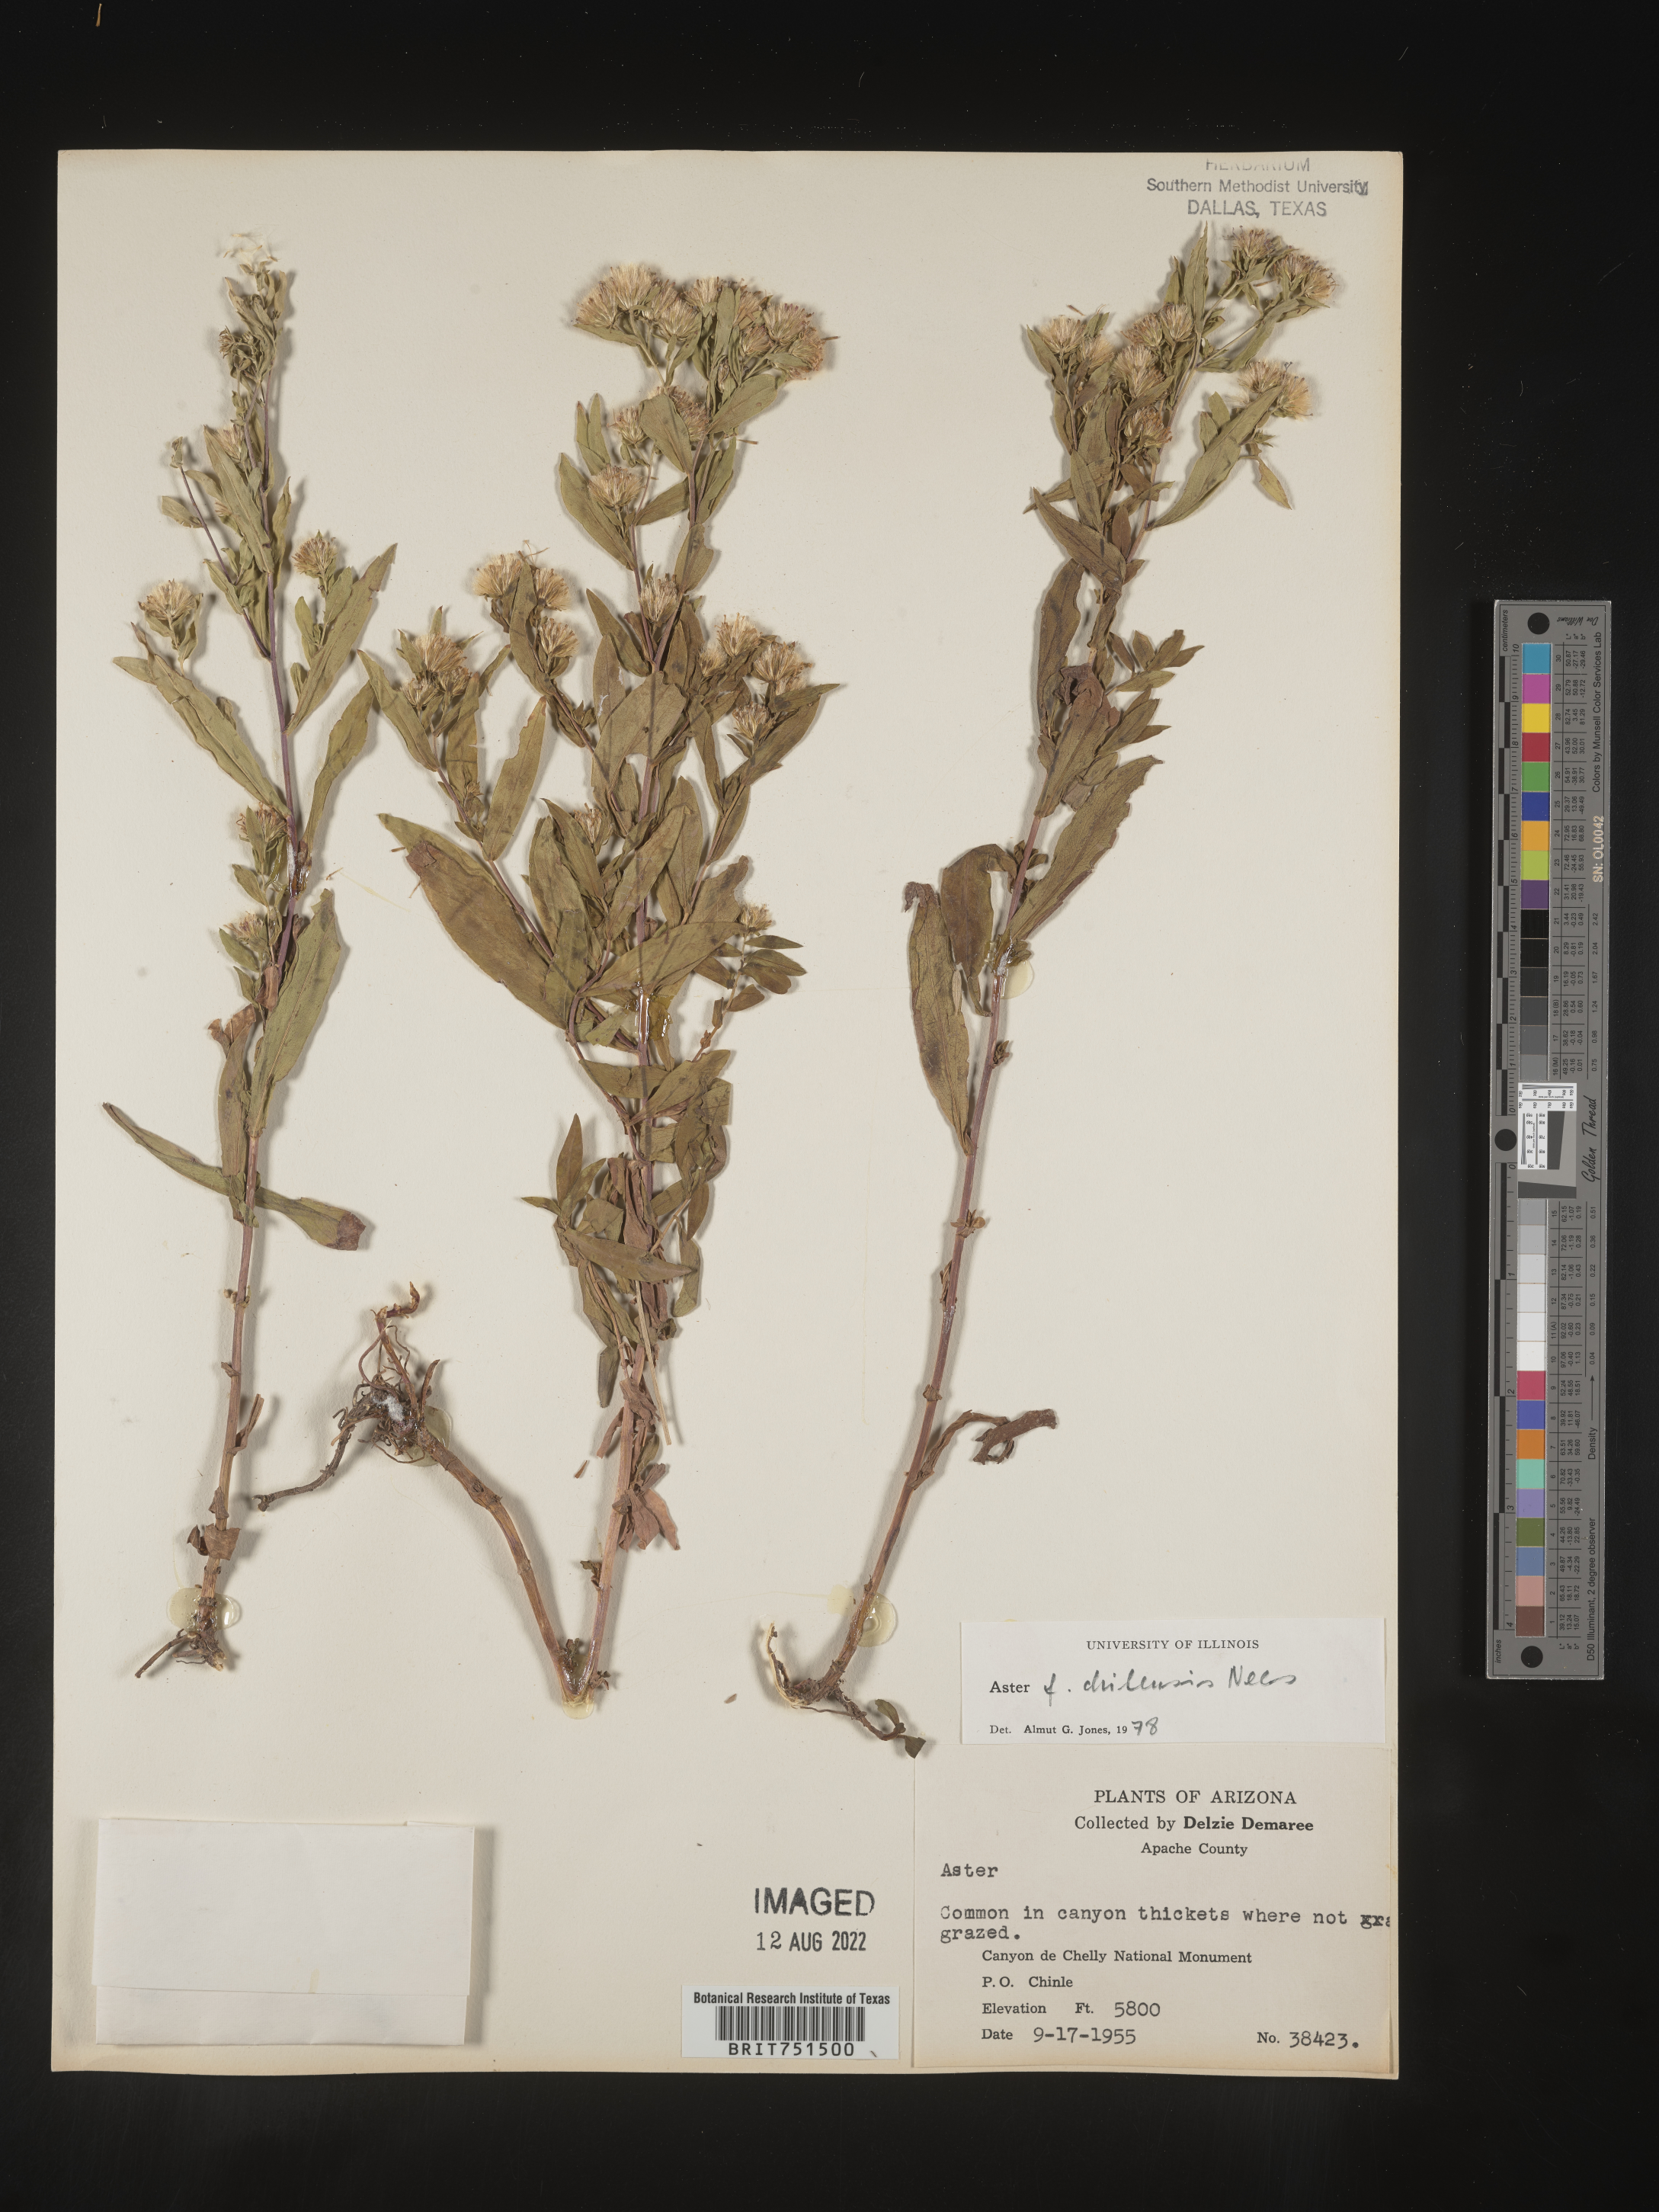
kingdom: Plantae
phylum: Tracheophyta
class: Magnoliopsida
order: Asterales
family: Asteraceae
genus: Symphyotrichum
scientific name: Symphyotrichum chilense
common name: Pacific aster
